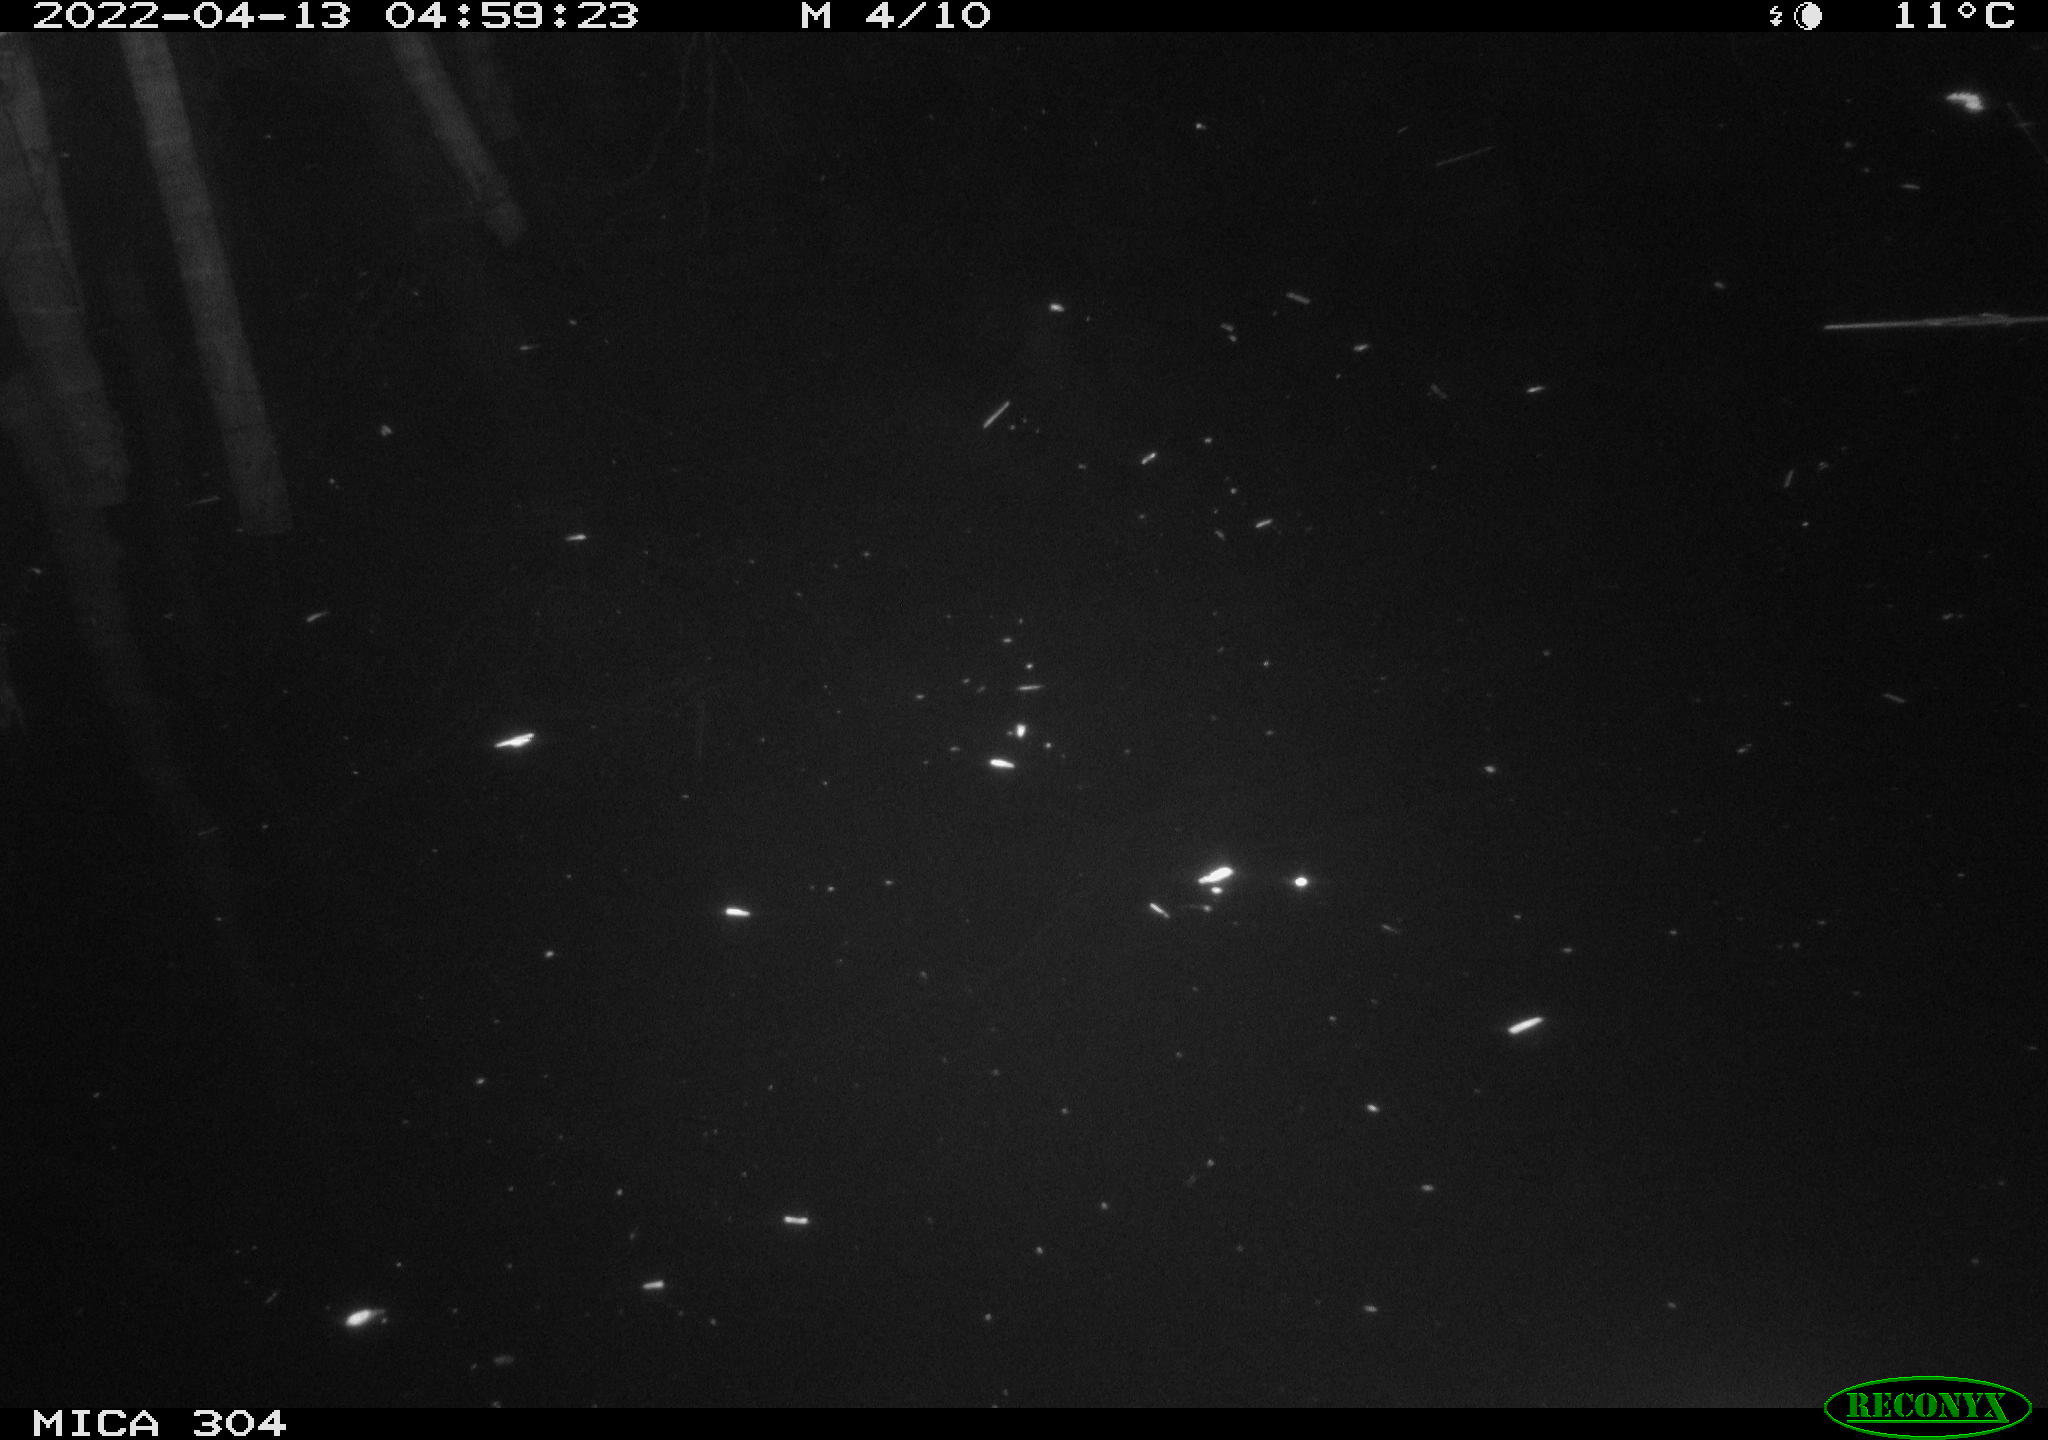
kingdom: Animalia
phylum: Chordata
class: Aves
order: Anseriformes
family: Anatidae
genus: Anas
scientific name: Anas platyrhynchos
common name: Mallard
